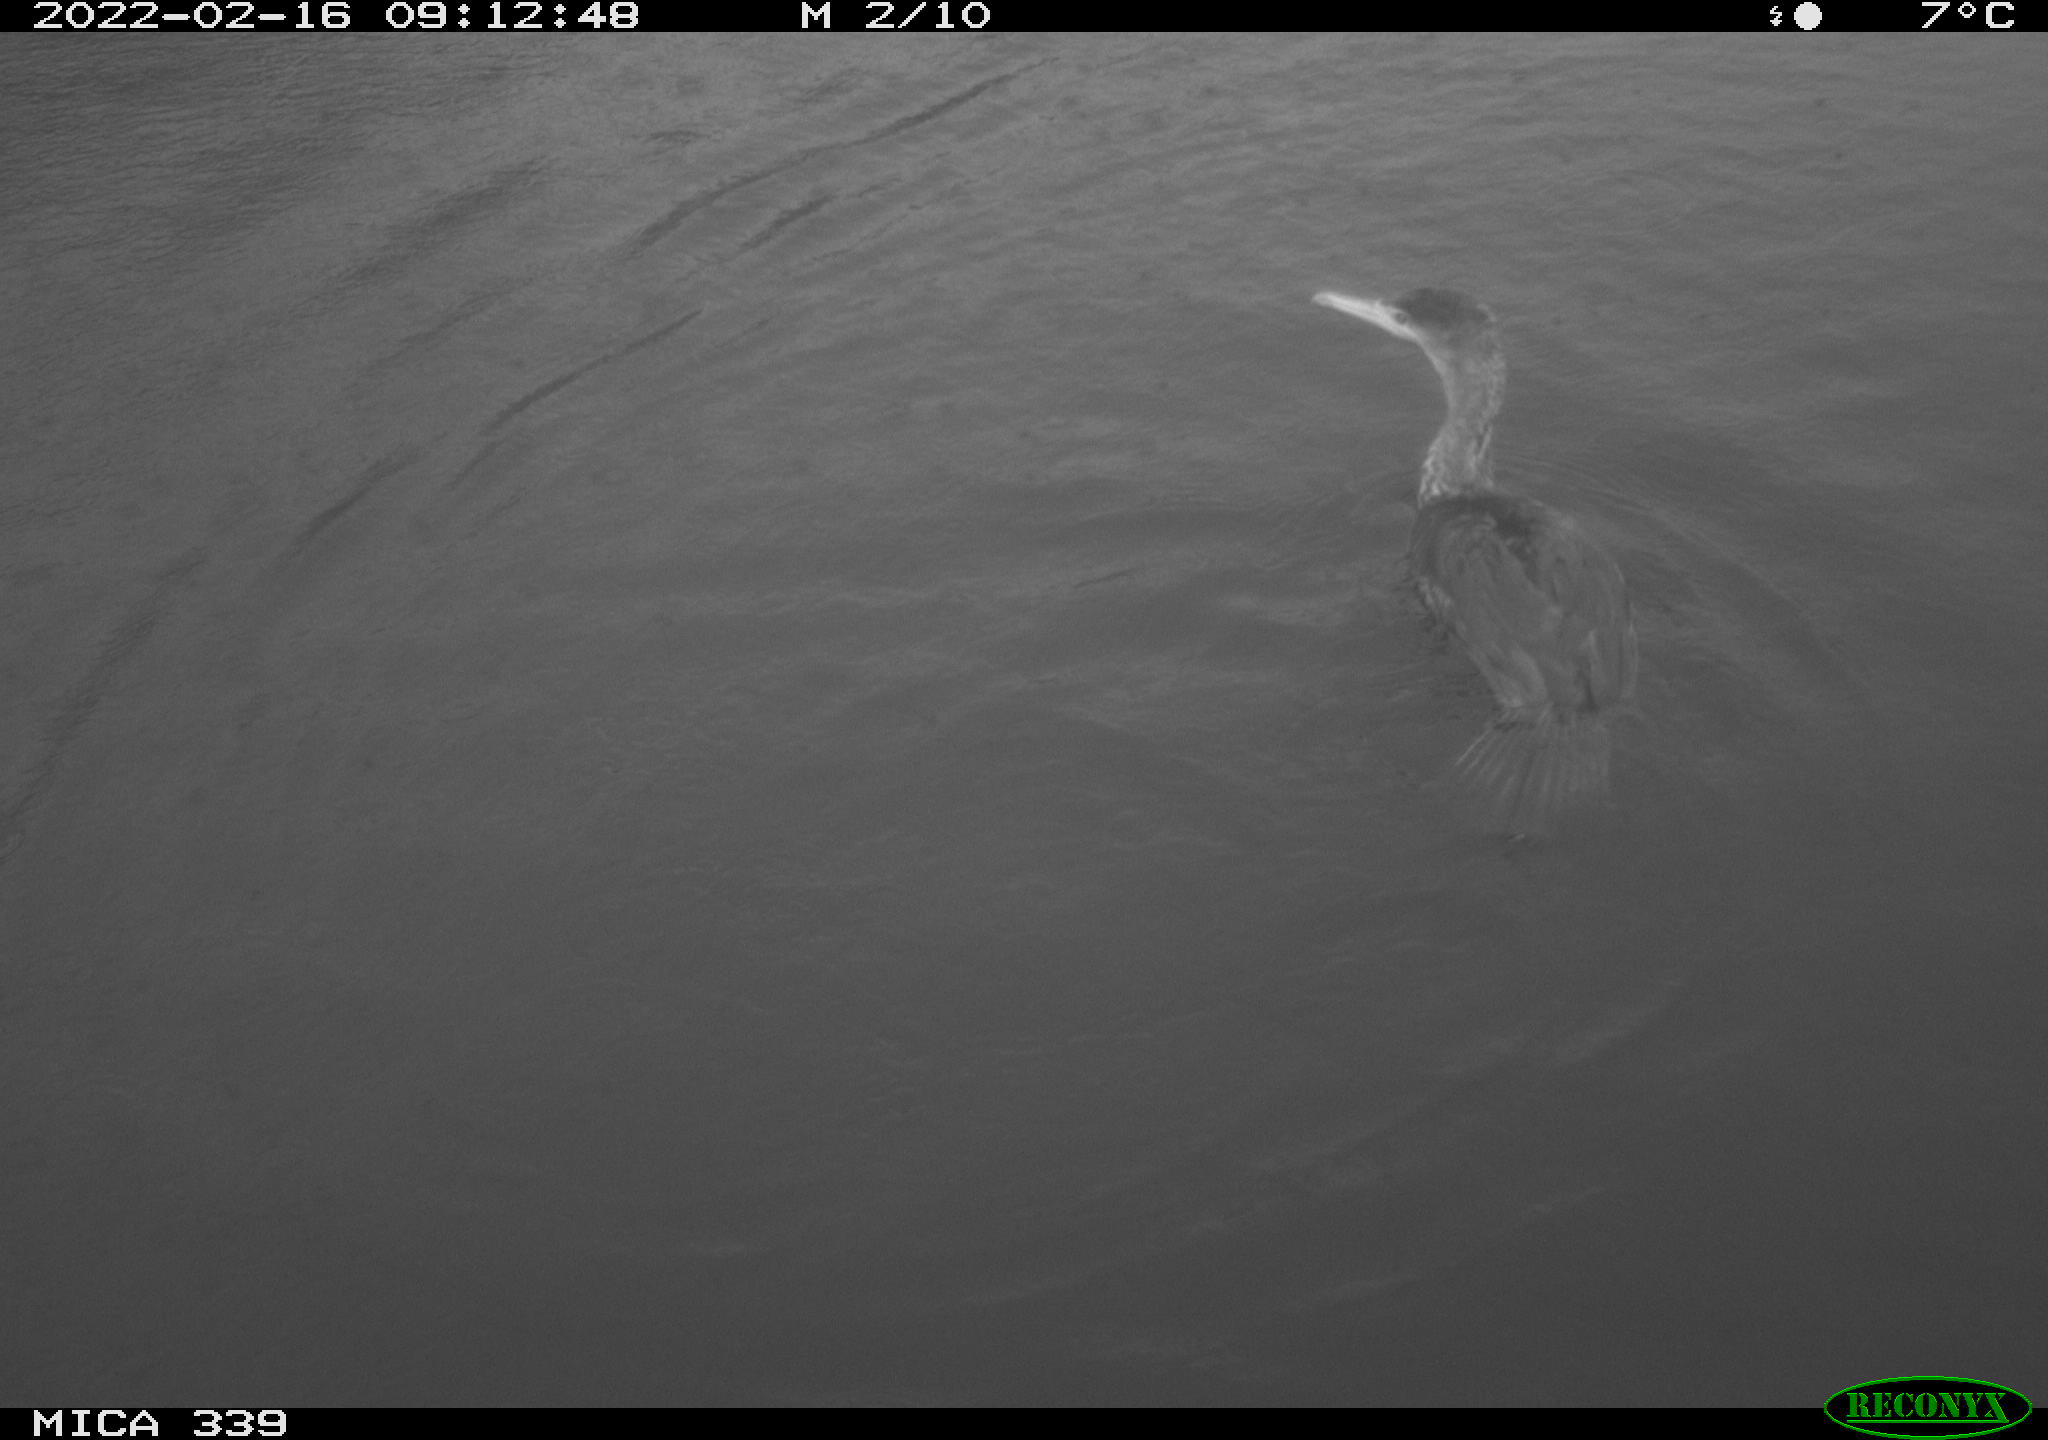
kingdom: Animalia
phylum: Chordata
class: Aves
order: Suliformes
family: Phalacrocoracidae
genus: Phalacrocorax
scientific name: Phalacrocorax carbo
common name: Great cormorant
